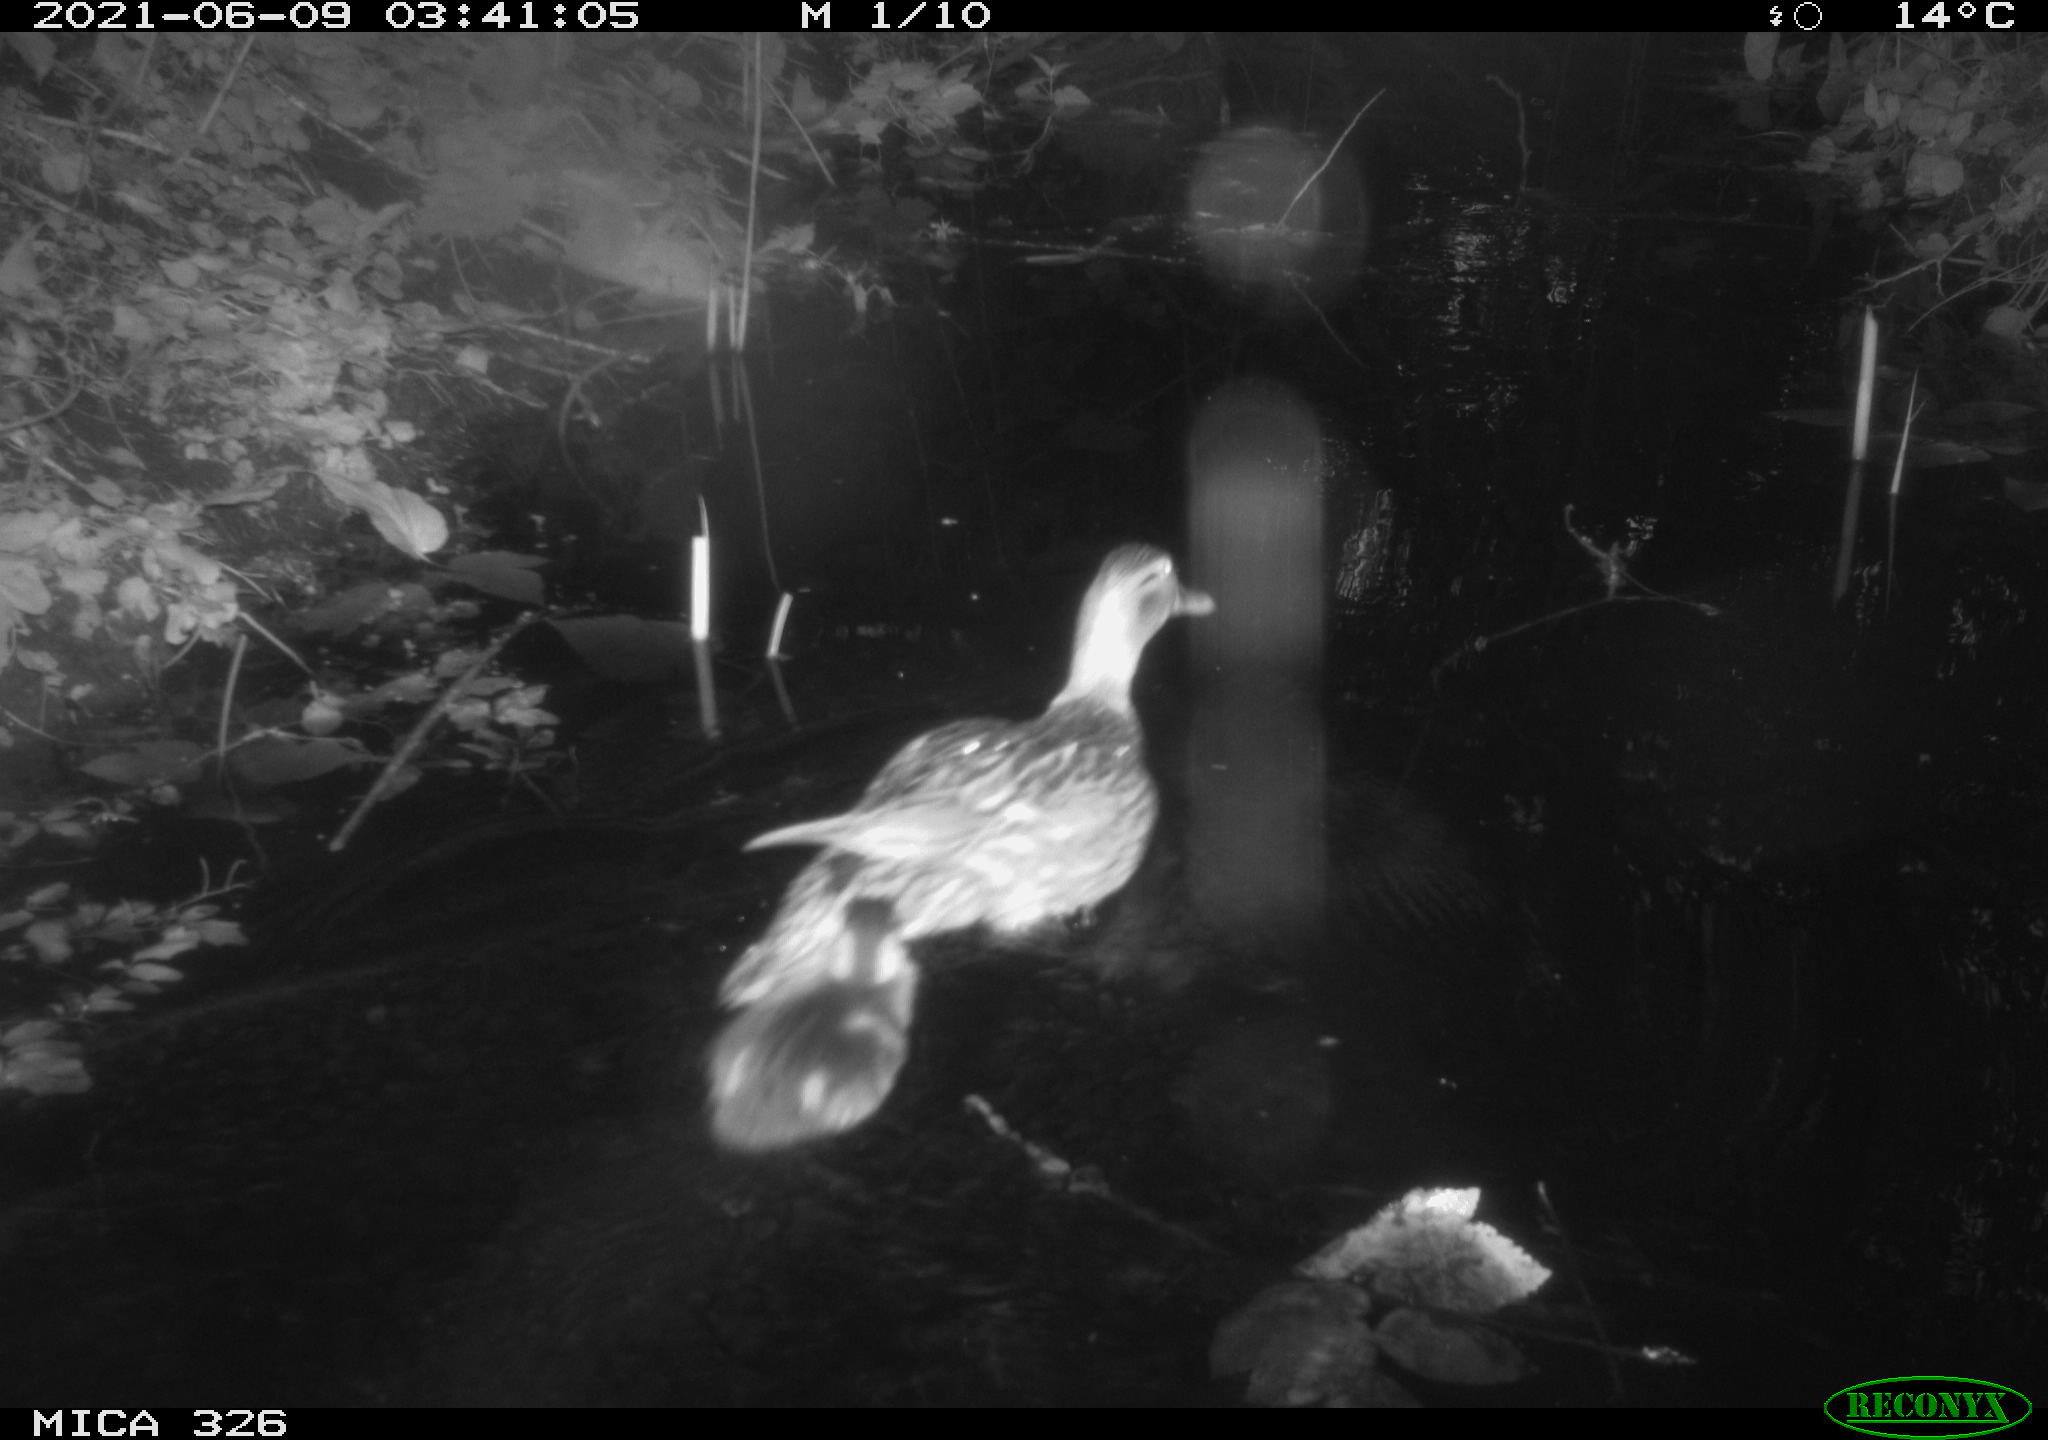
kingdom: Animalia
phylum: Chordata
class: Aves
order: Anseriformes
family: Anatidae
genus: Anas
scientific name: Anas platyrhynchos
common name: Mallard
